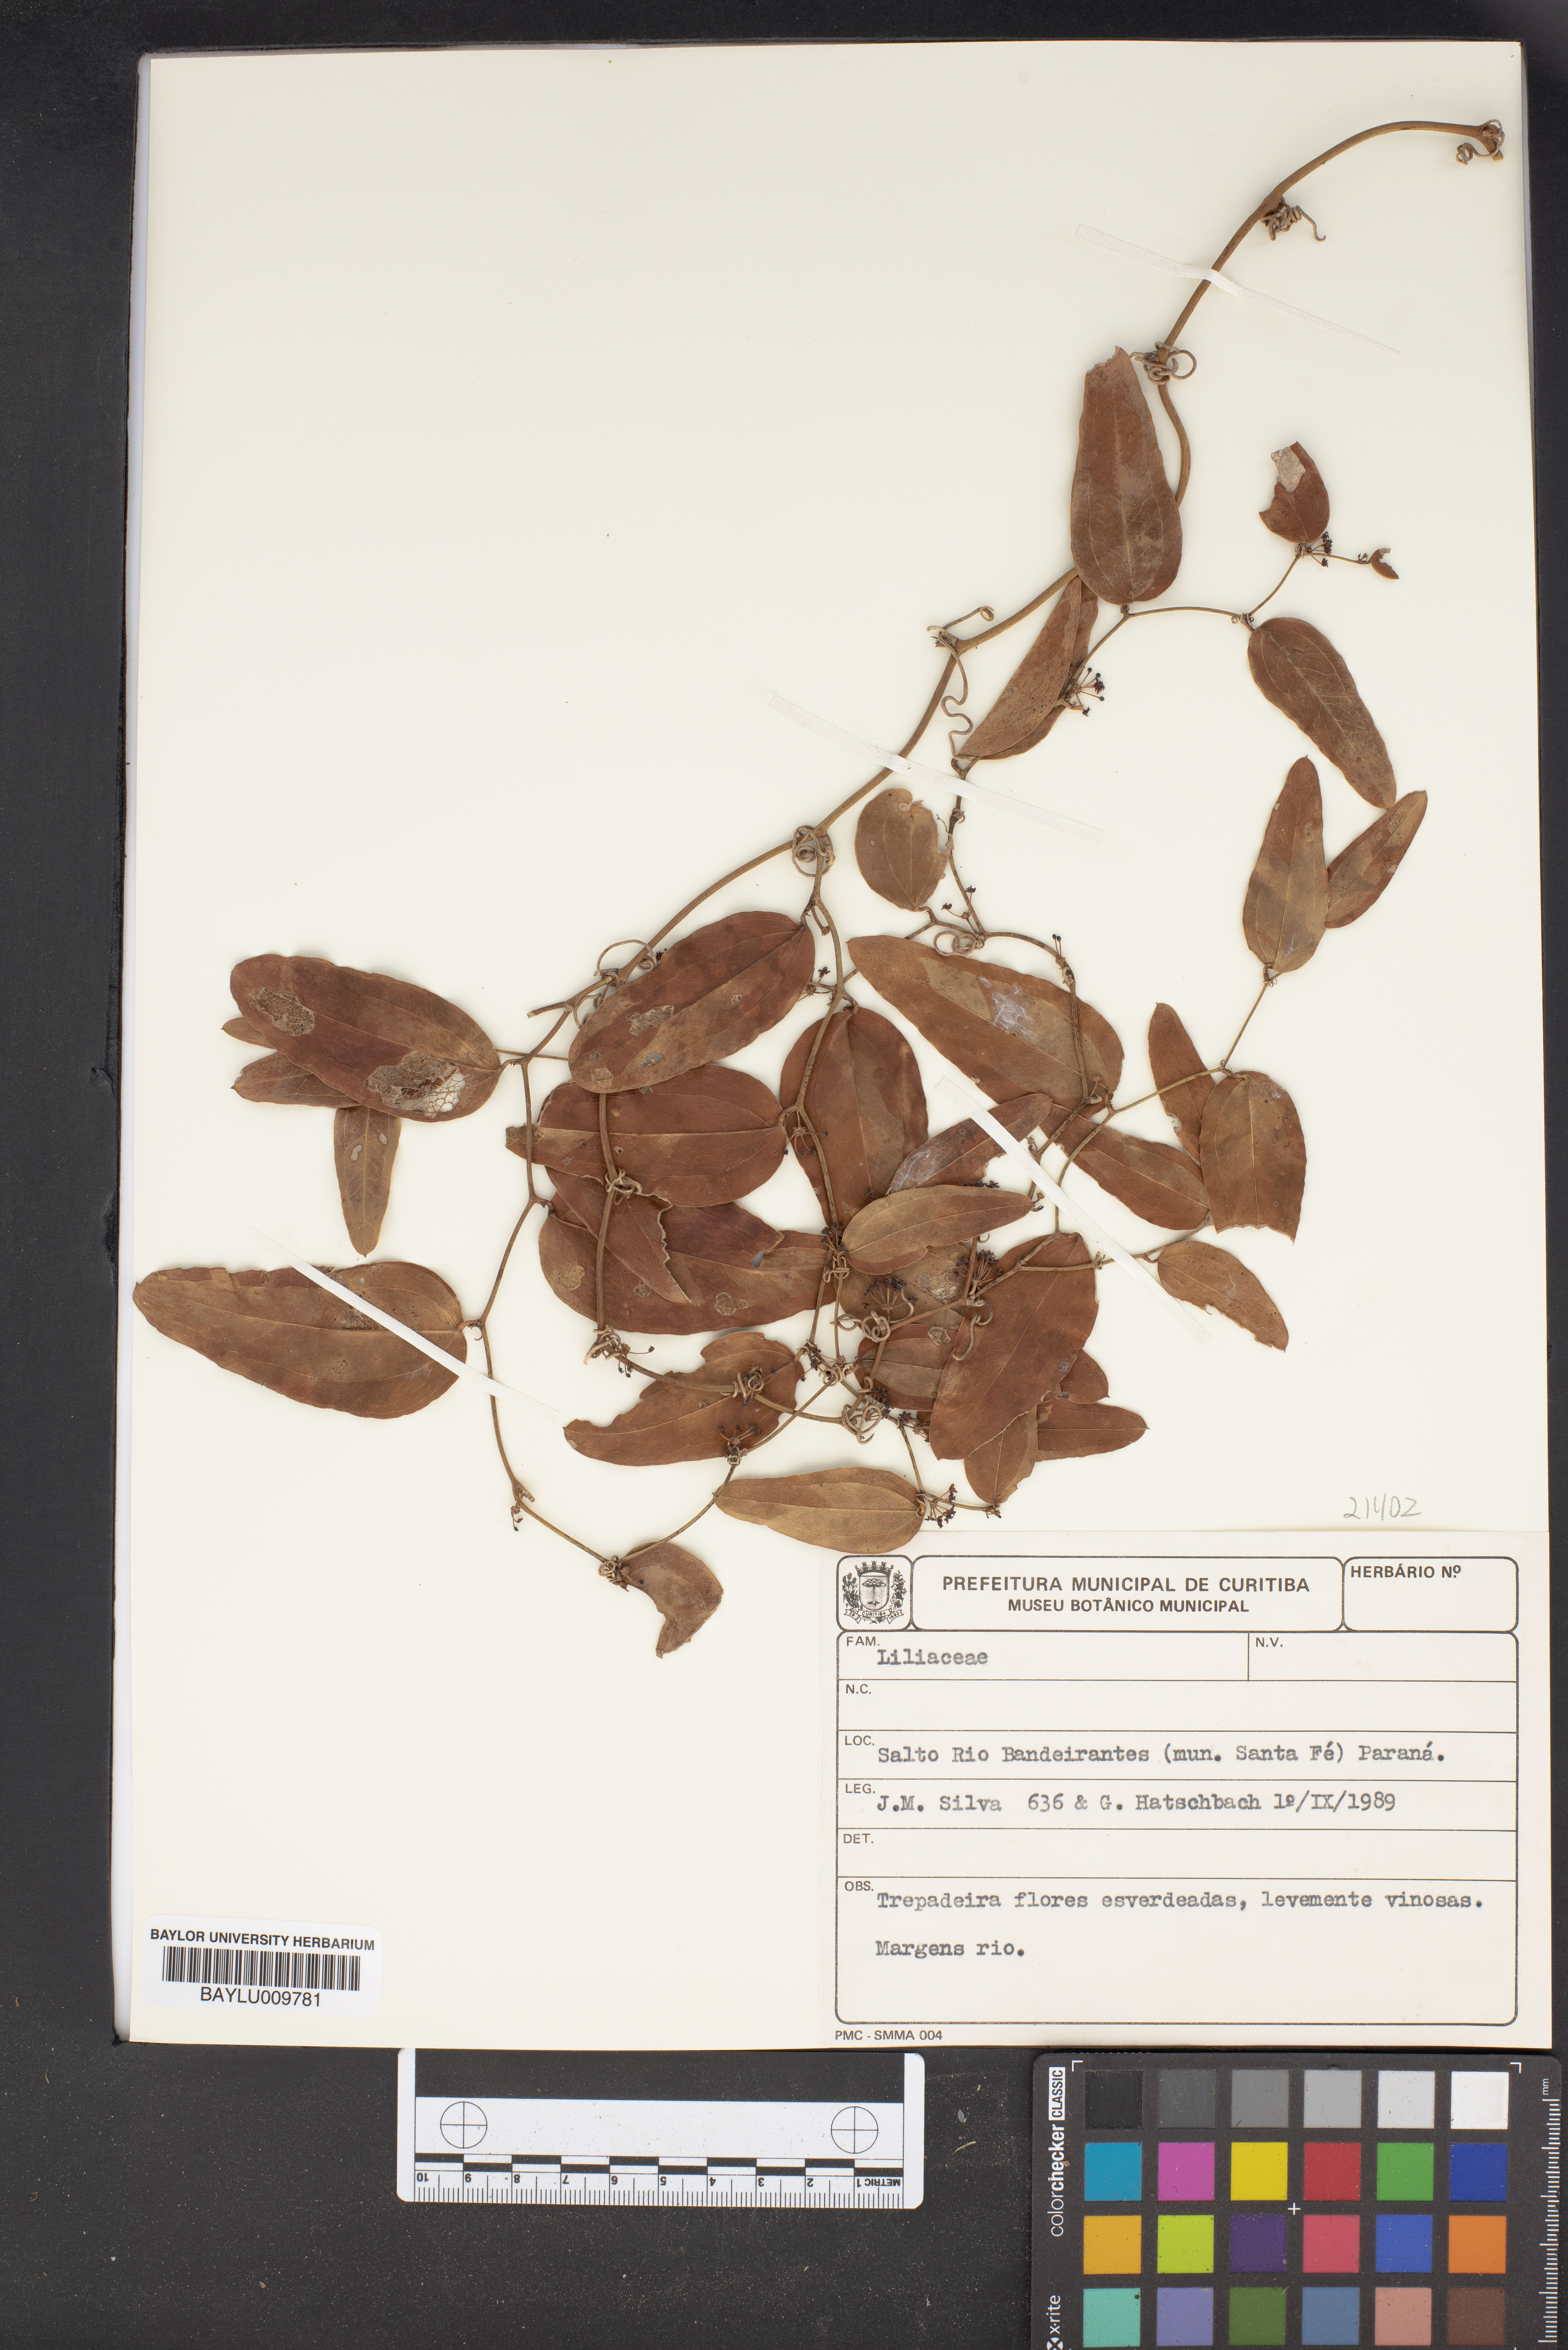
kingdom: Plantae
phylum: Tracheophyta
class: Liliopsida
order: Liliales
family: Liliaceae
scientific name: Liliaceae
